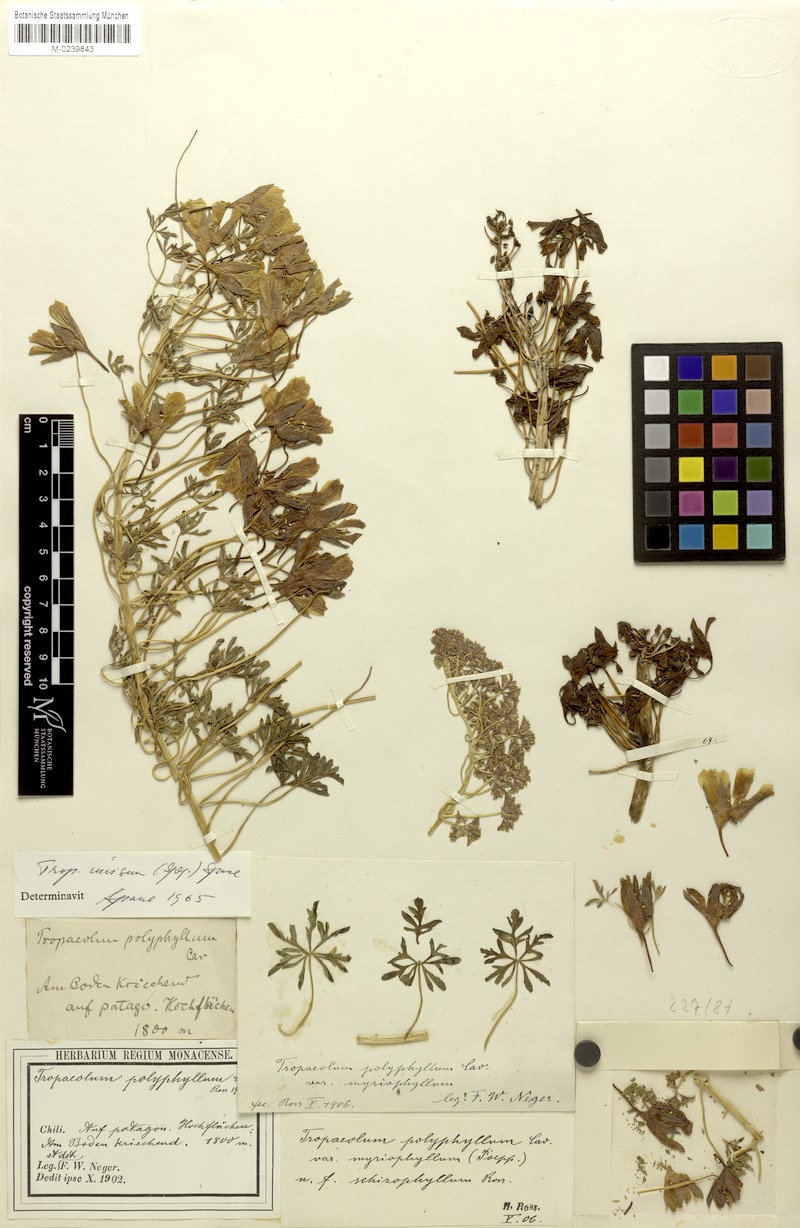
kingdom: Plantae
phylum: Tracheophyta
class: Magnoliopsida
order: Brassicales
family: Tropaeolaceae
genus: Tropaeolum
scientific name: Tropaeolum incisum
